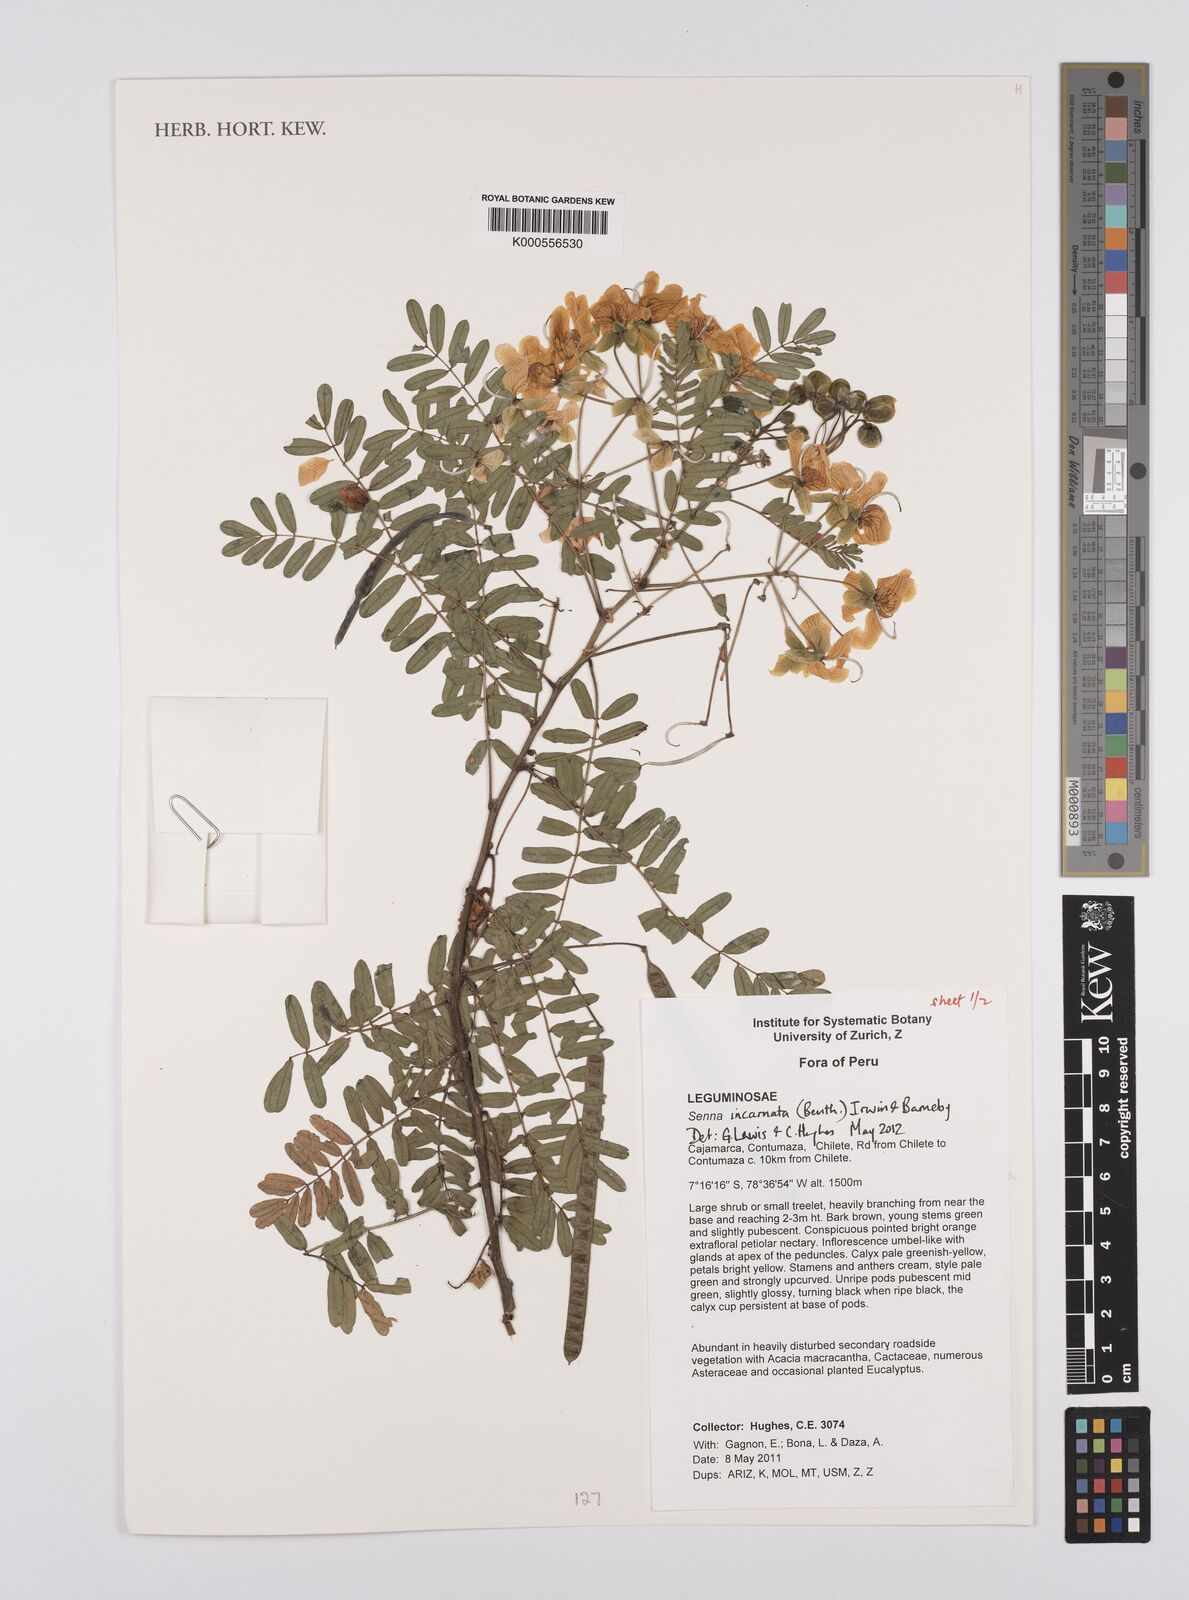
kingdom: Plantae
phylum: Tracheophyta
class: Magnoliopsida
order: Fabales
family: Fabaceae
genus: Senna
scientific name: Senna incarnata
